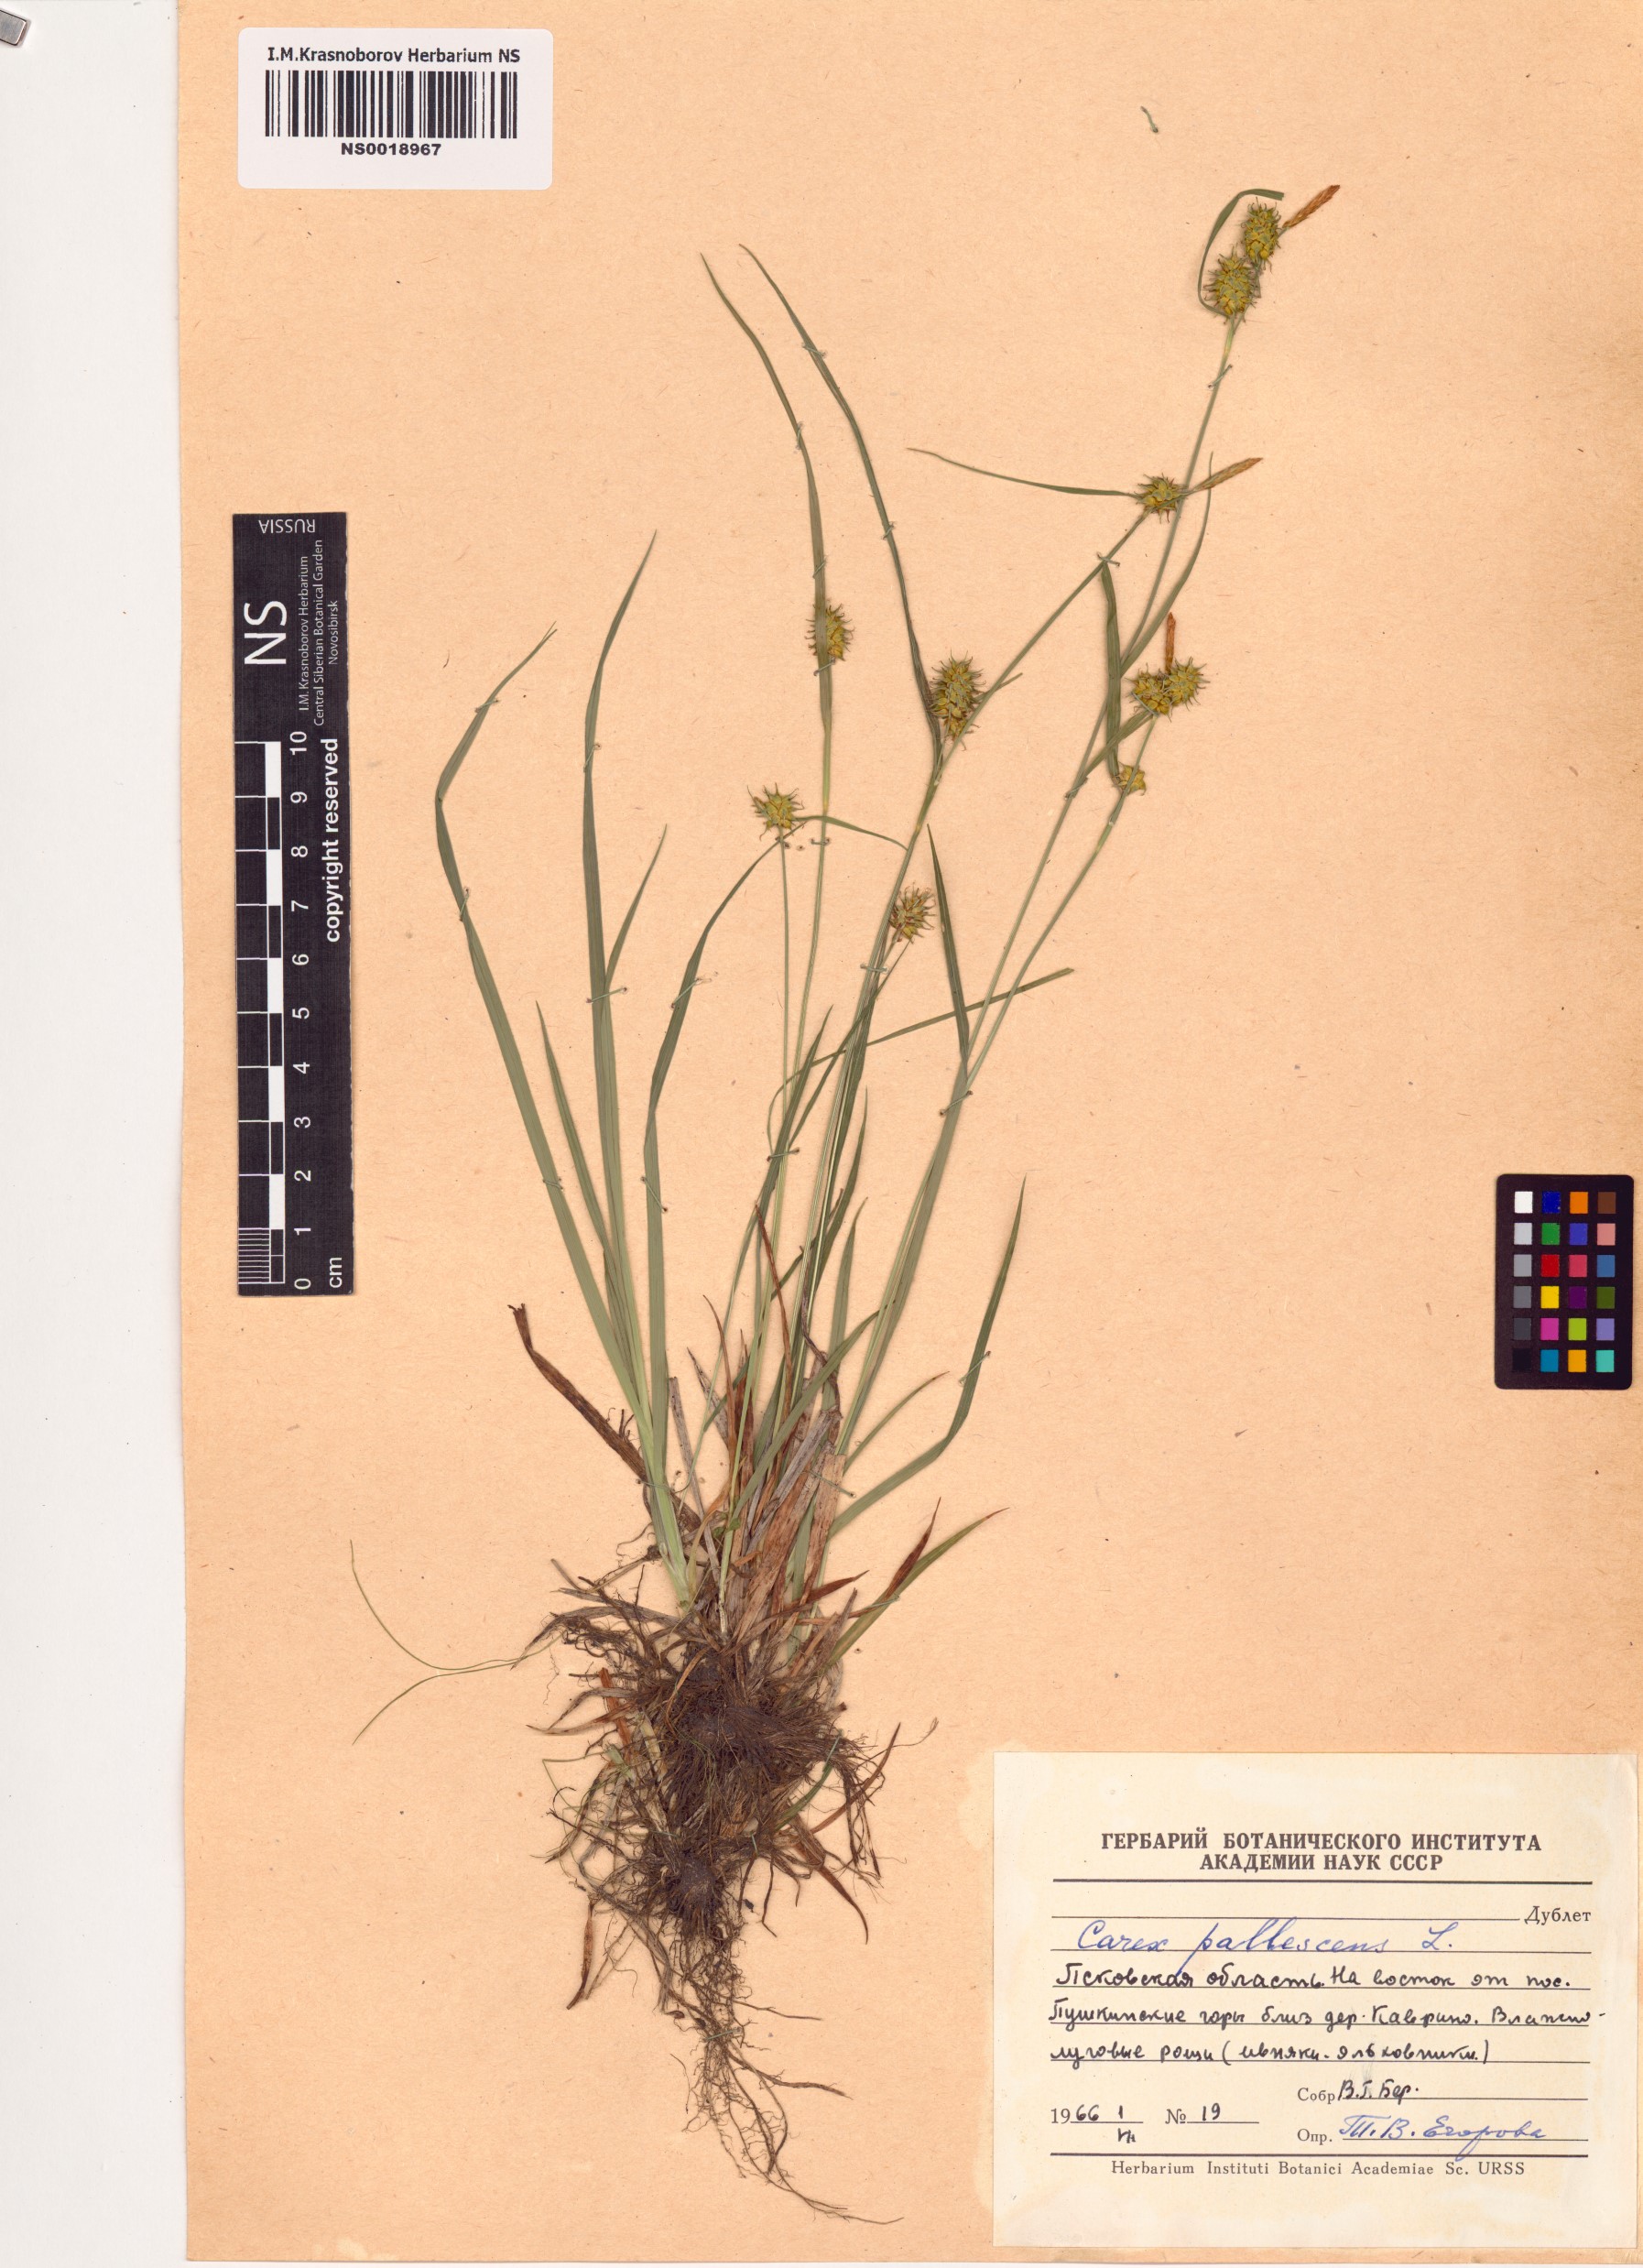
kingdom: Plantae
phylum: Tracheophyta
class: Liliopsida
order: Poales
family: Cyperaceae
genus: Carex
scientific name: Carex pallescens
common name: Pale sedge
